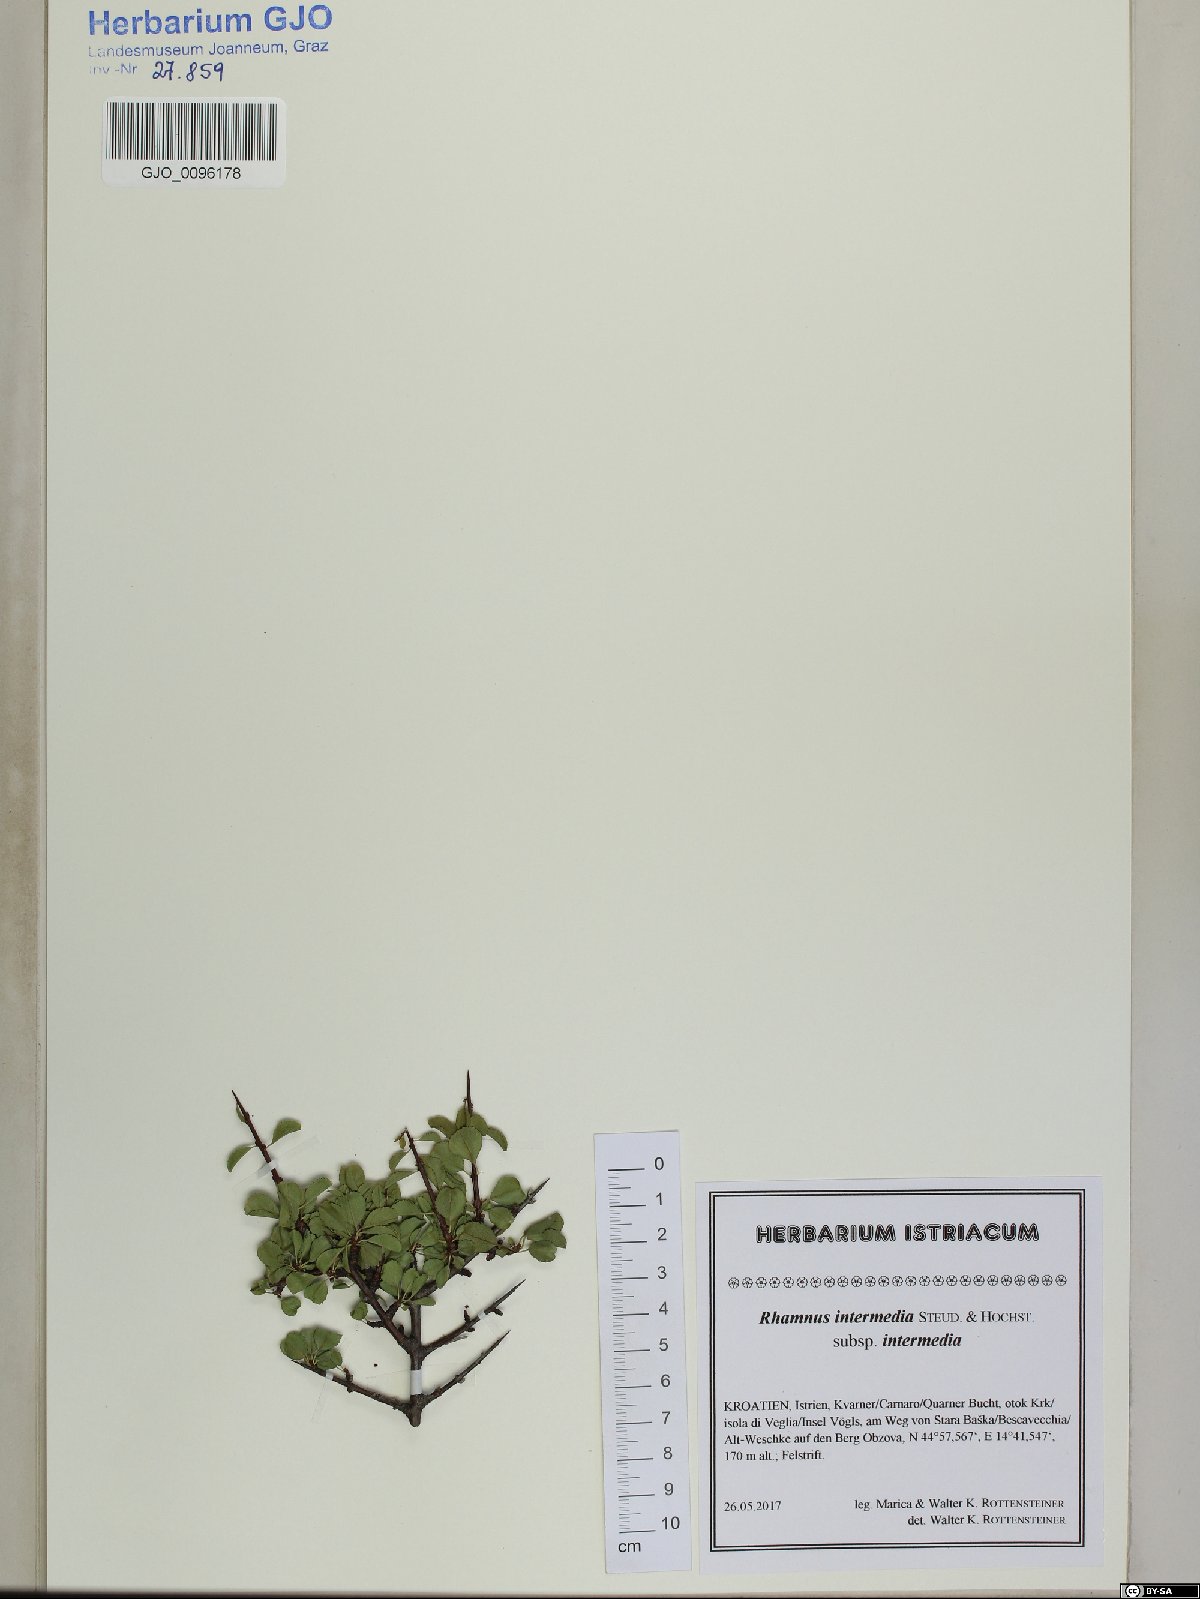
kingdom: Plantae
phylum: Tracheophyta
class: Magnoliopsida
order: Rosales
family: Rhamnaceae
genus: Rhamnus
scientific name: Rhamnus intermedia
